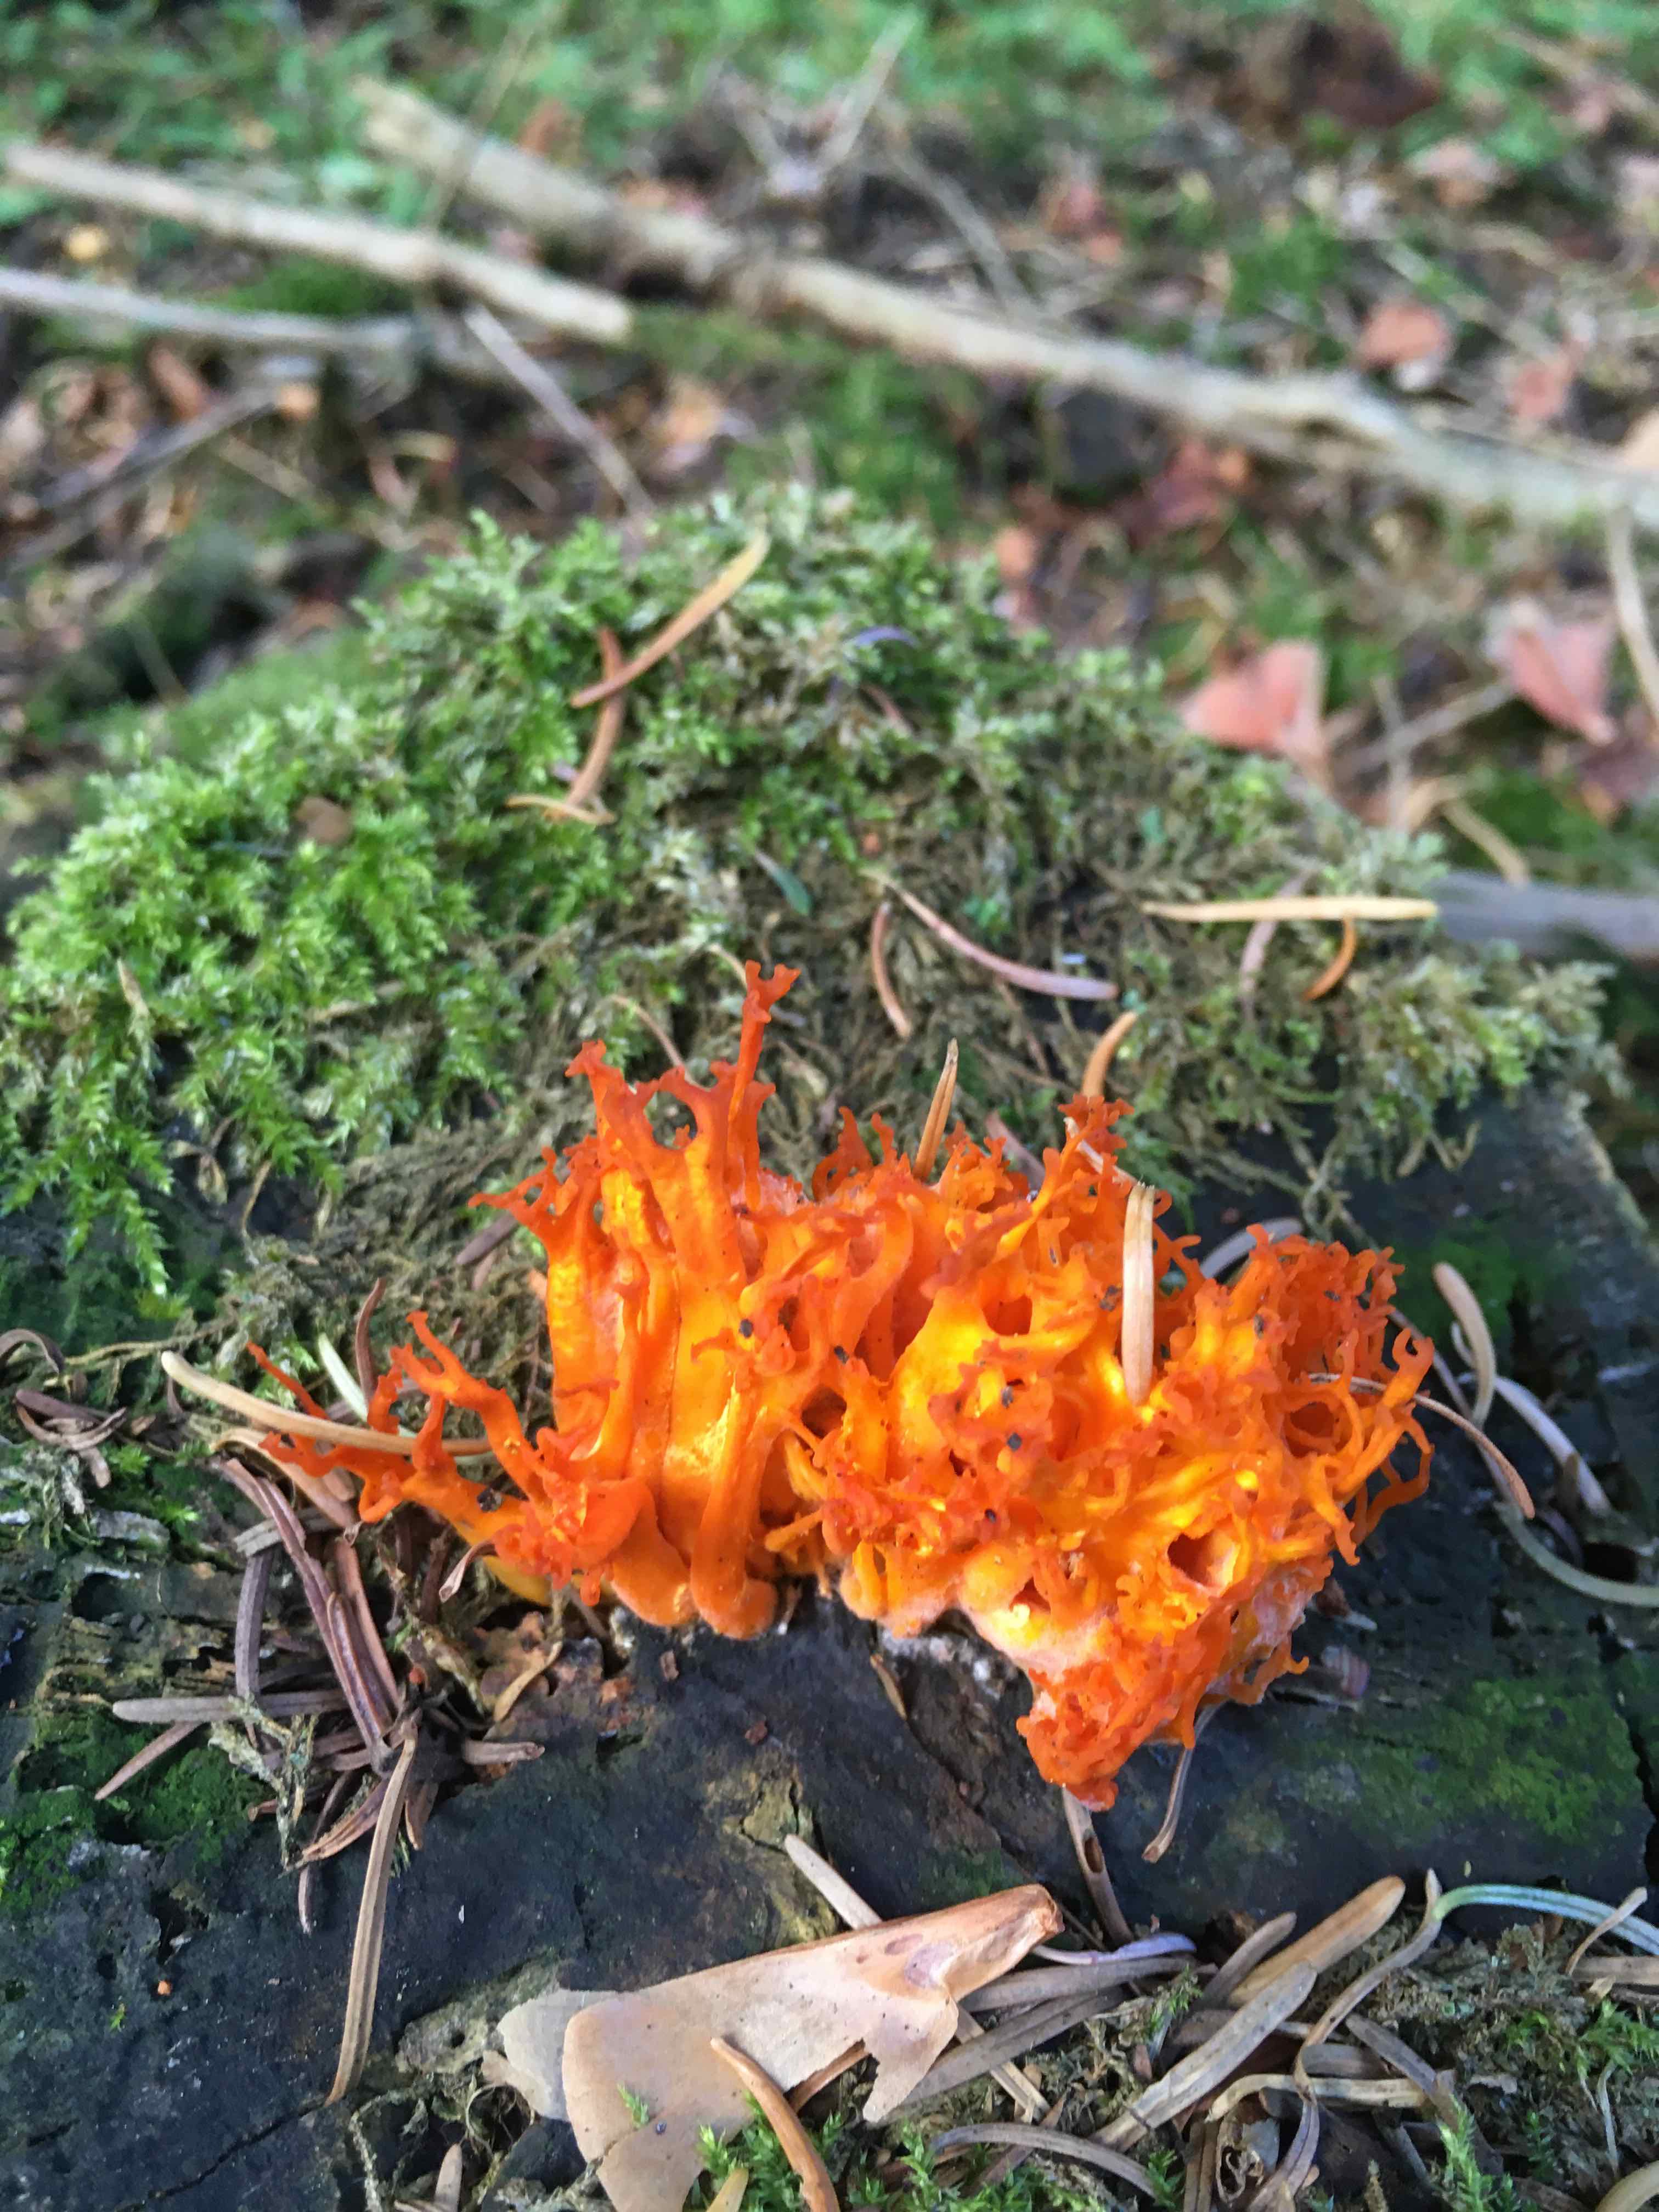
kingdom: Fungi
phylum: Basidiomycota
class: Dacrymycetes
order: Dacrymycetales
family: Dacrymycetaceae
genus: Calocera
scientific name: Calocera viscosa
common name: almindelig guldgaffel
